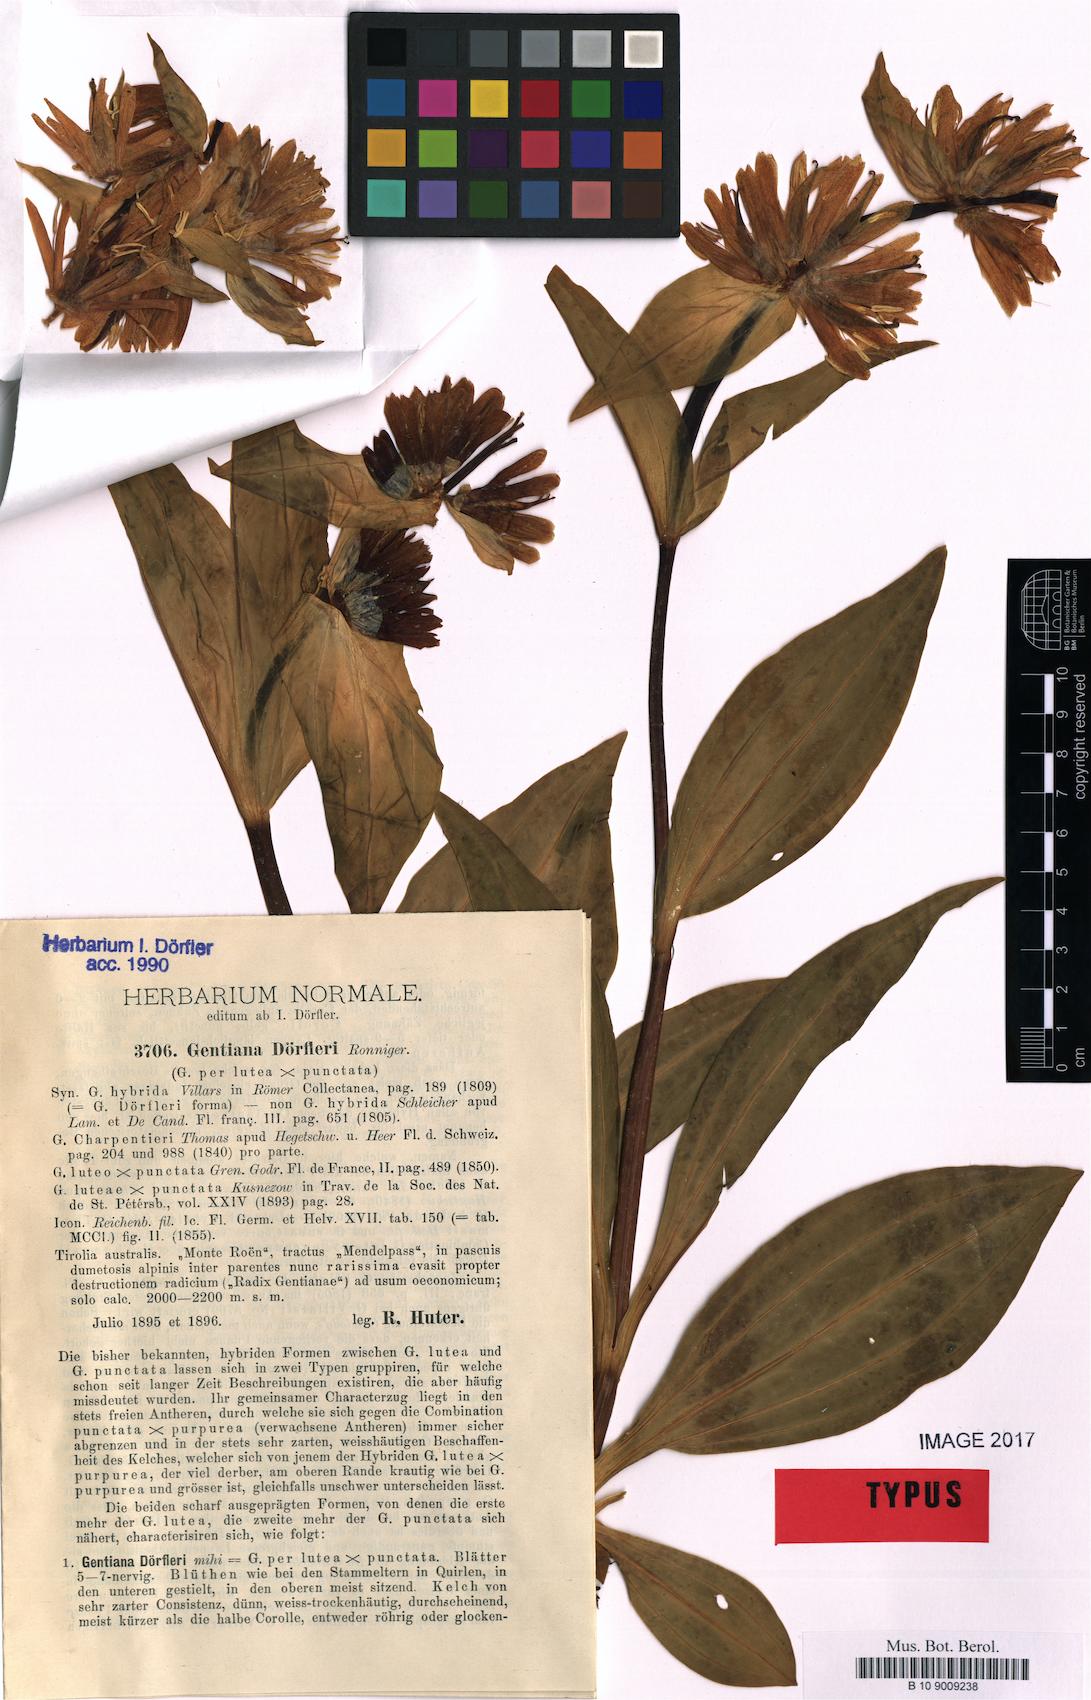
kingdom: Plantae
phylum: Tracheophyta
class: Magnoliopsida
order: Gentianales
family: Gentianaceae
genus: Gentiana
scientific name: Gentiana doerfleri
